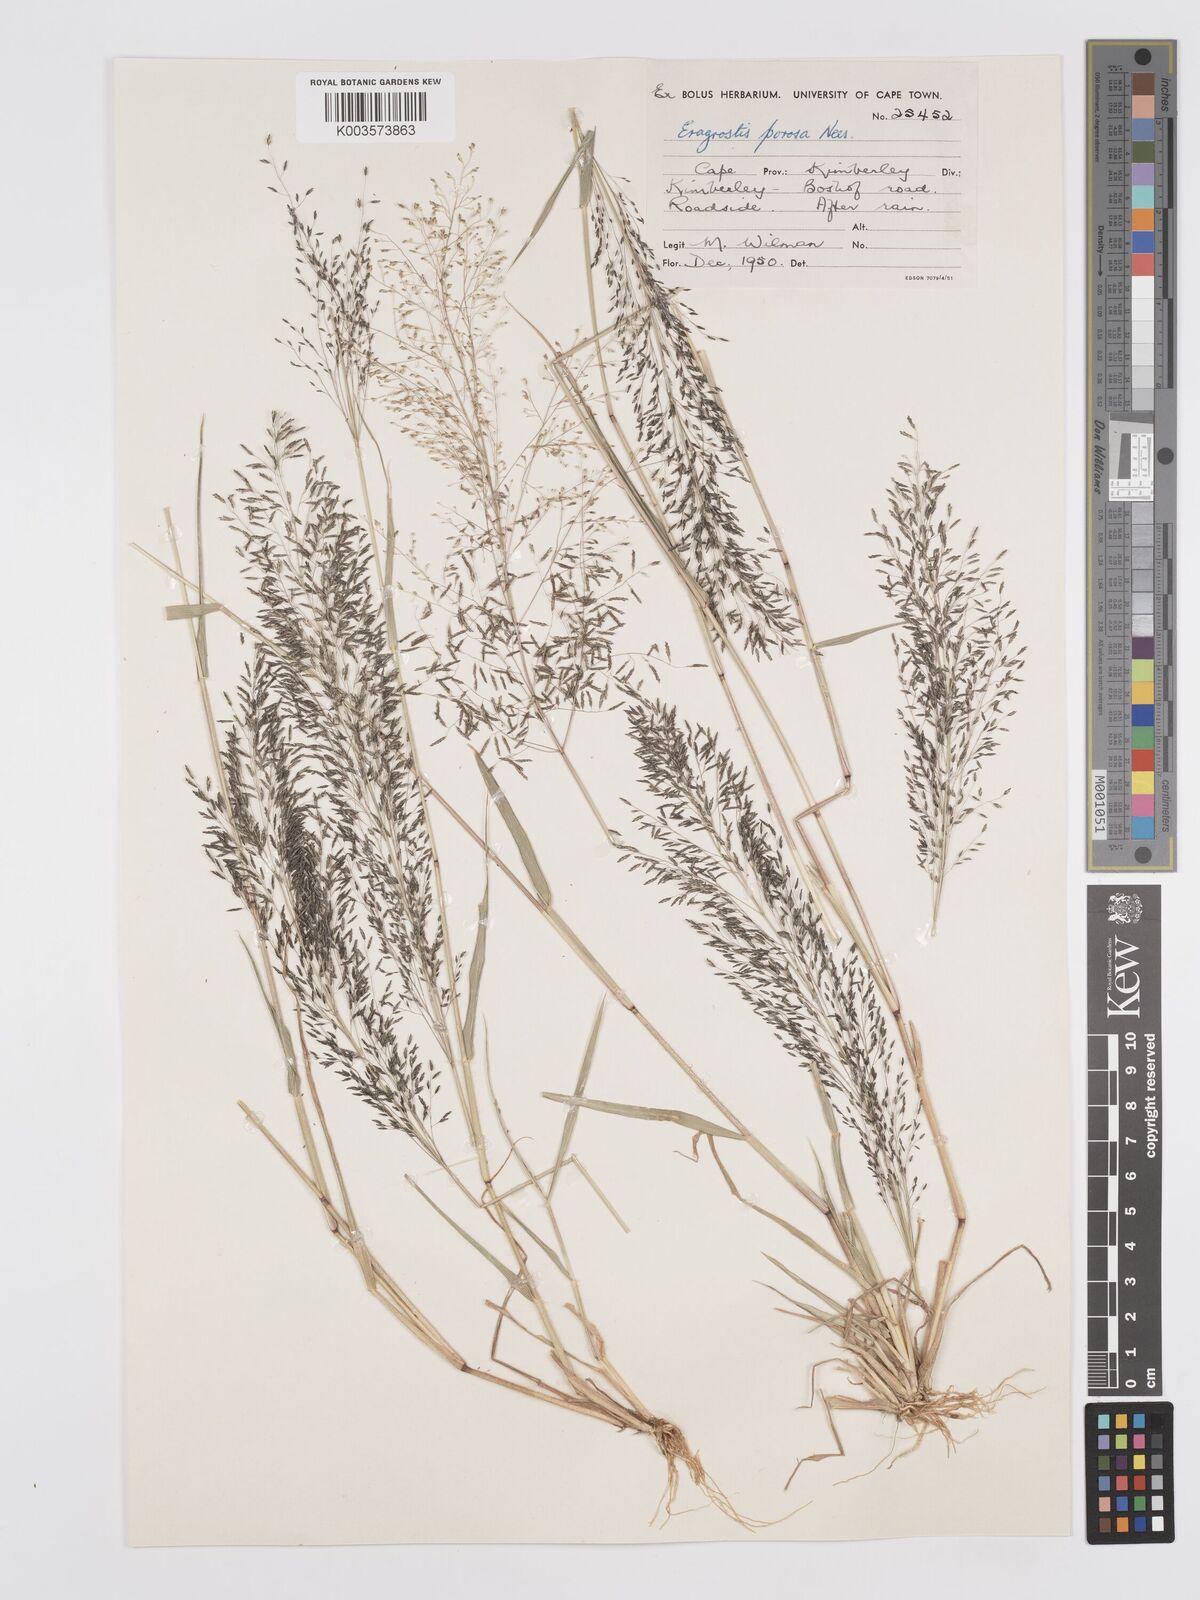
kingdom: Plantae
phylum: Tracheophyta
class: Liliopsida
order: Poales
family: Poaceae
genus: Eragrostis
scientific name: Eragrostis porosa
